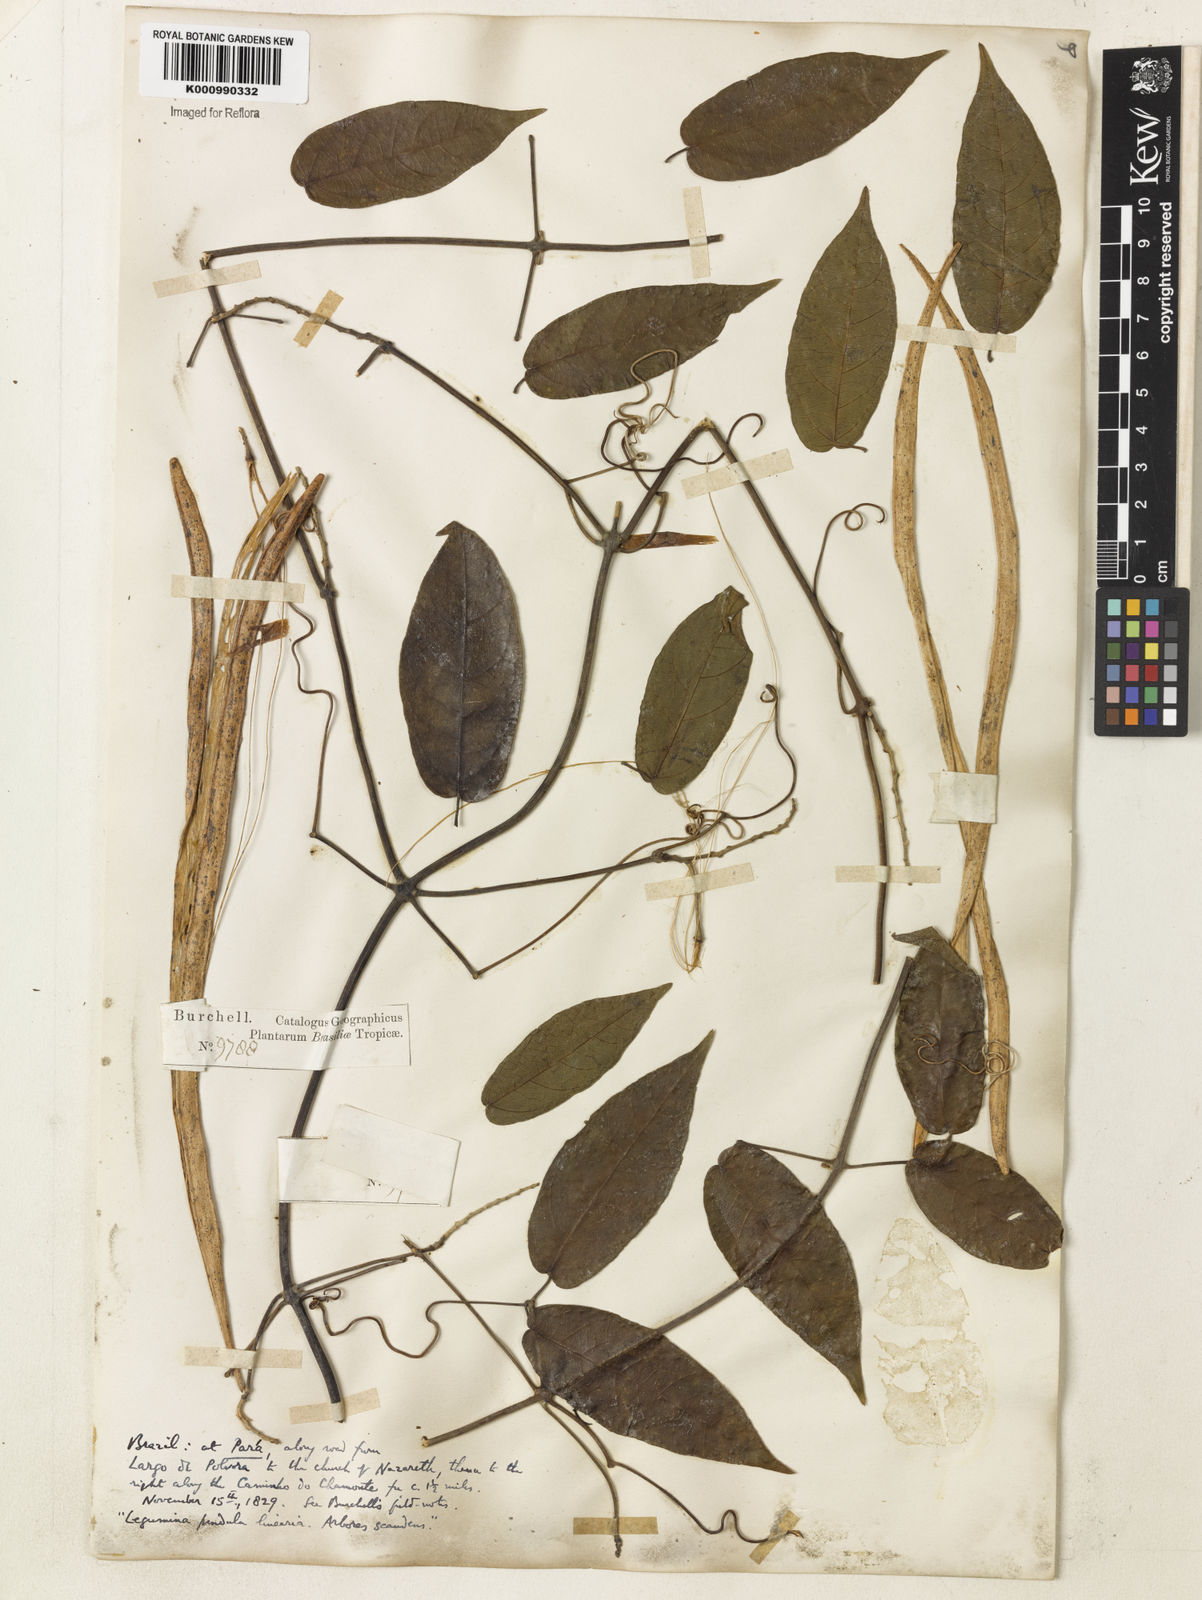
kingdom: Plantae
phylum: Tracheophyta
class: Magnoliopsida
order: Lamiales
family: Bignoniaceae
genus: Stizophyllum
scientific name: Stizophyllum
